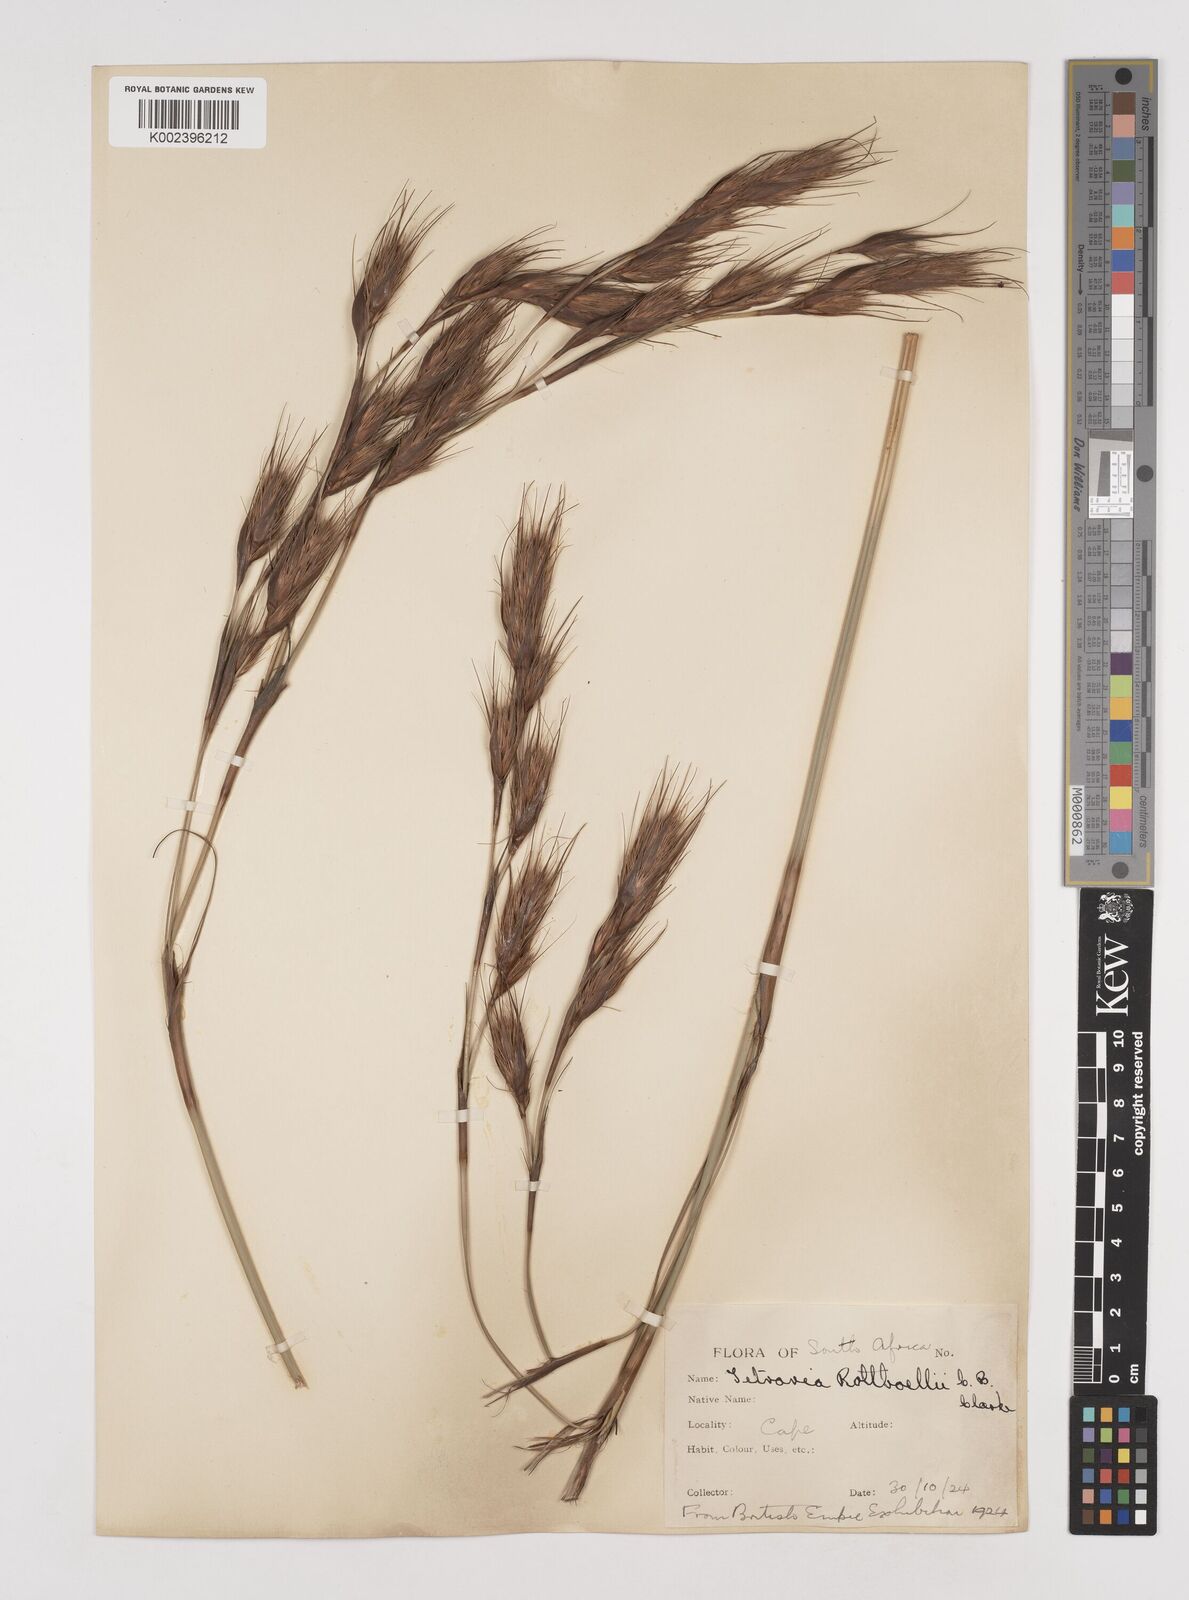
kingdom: Plantae
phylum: Tracheophyta
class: Liliopsida
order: Poales
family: Cyperaceae
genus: Tetraria
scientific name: Tetraria bromoides
